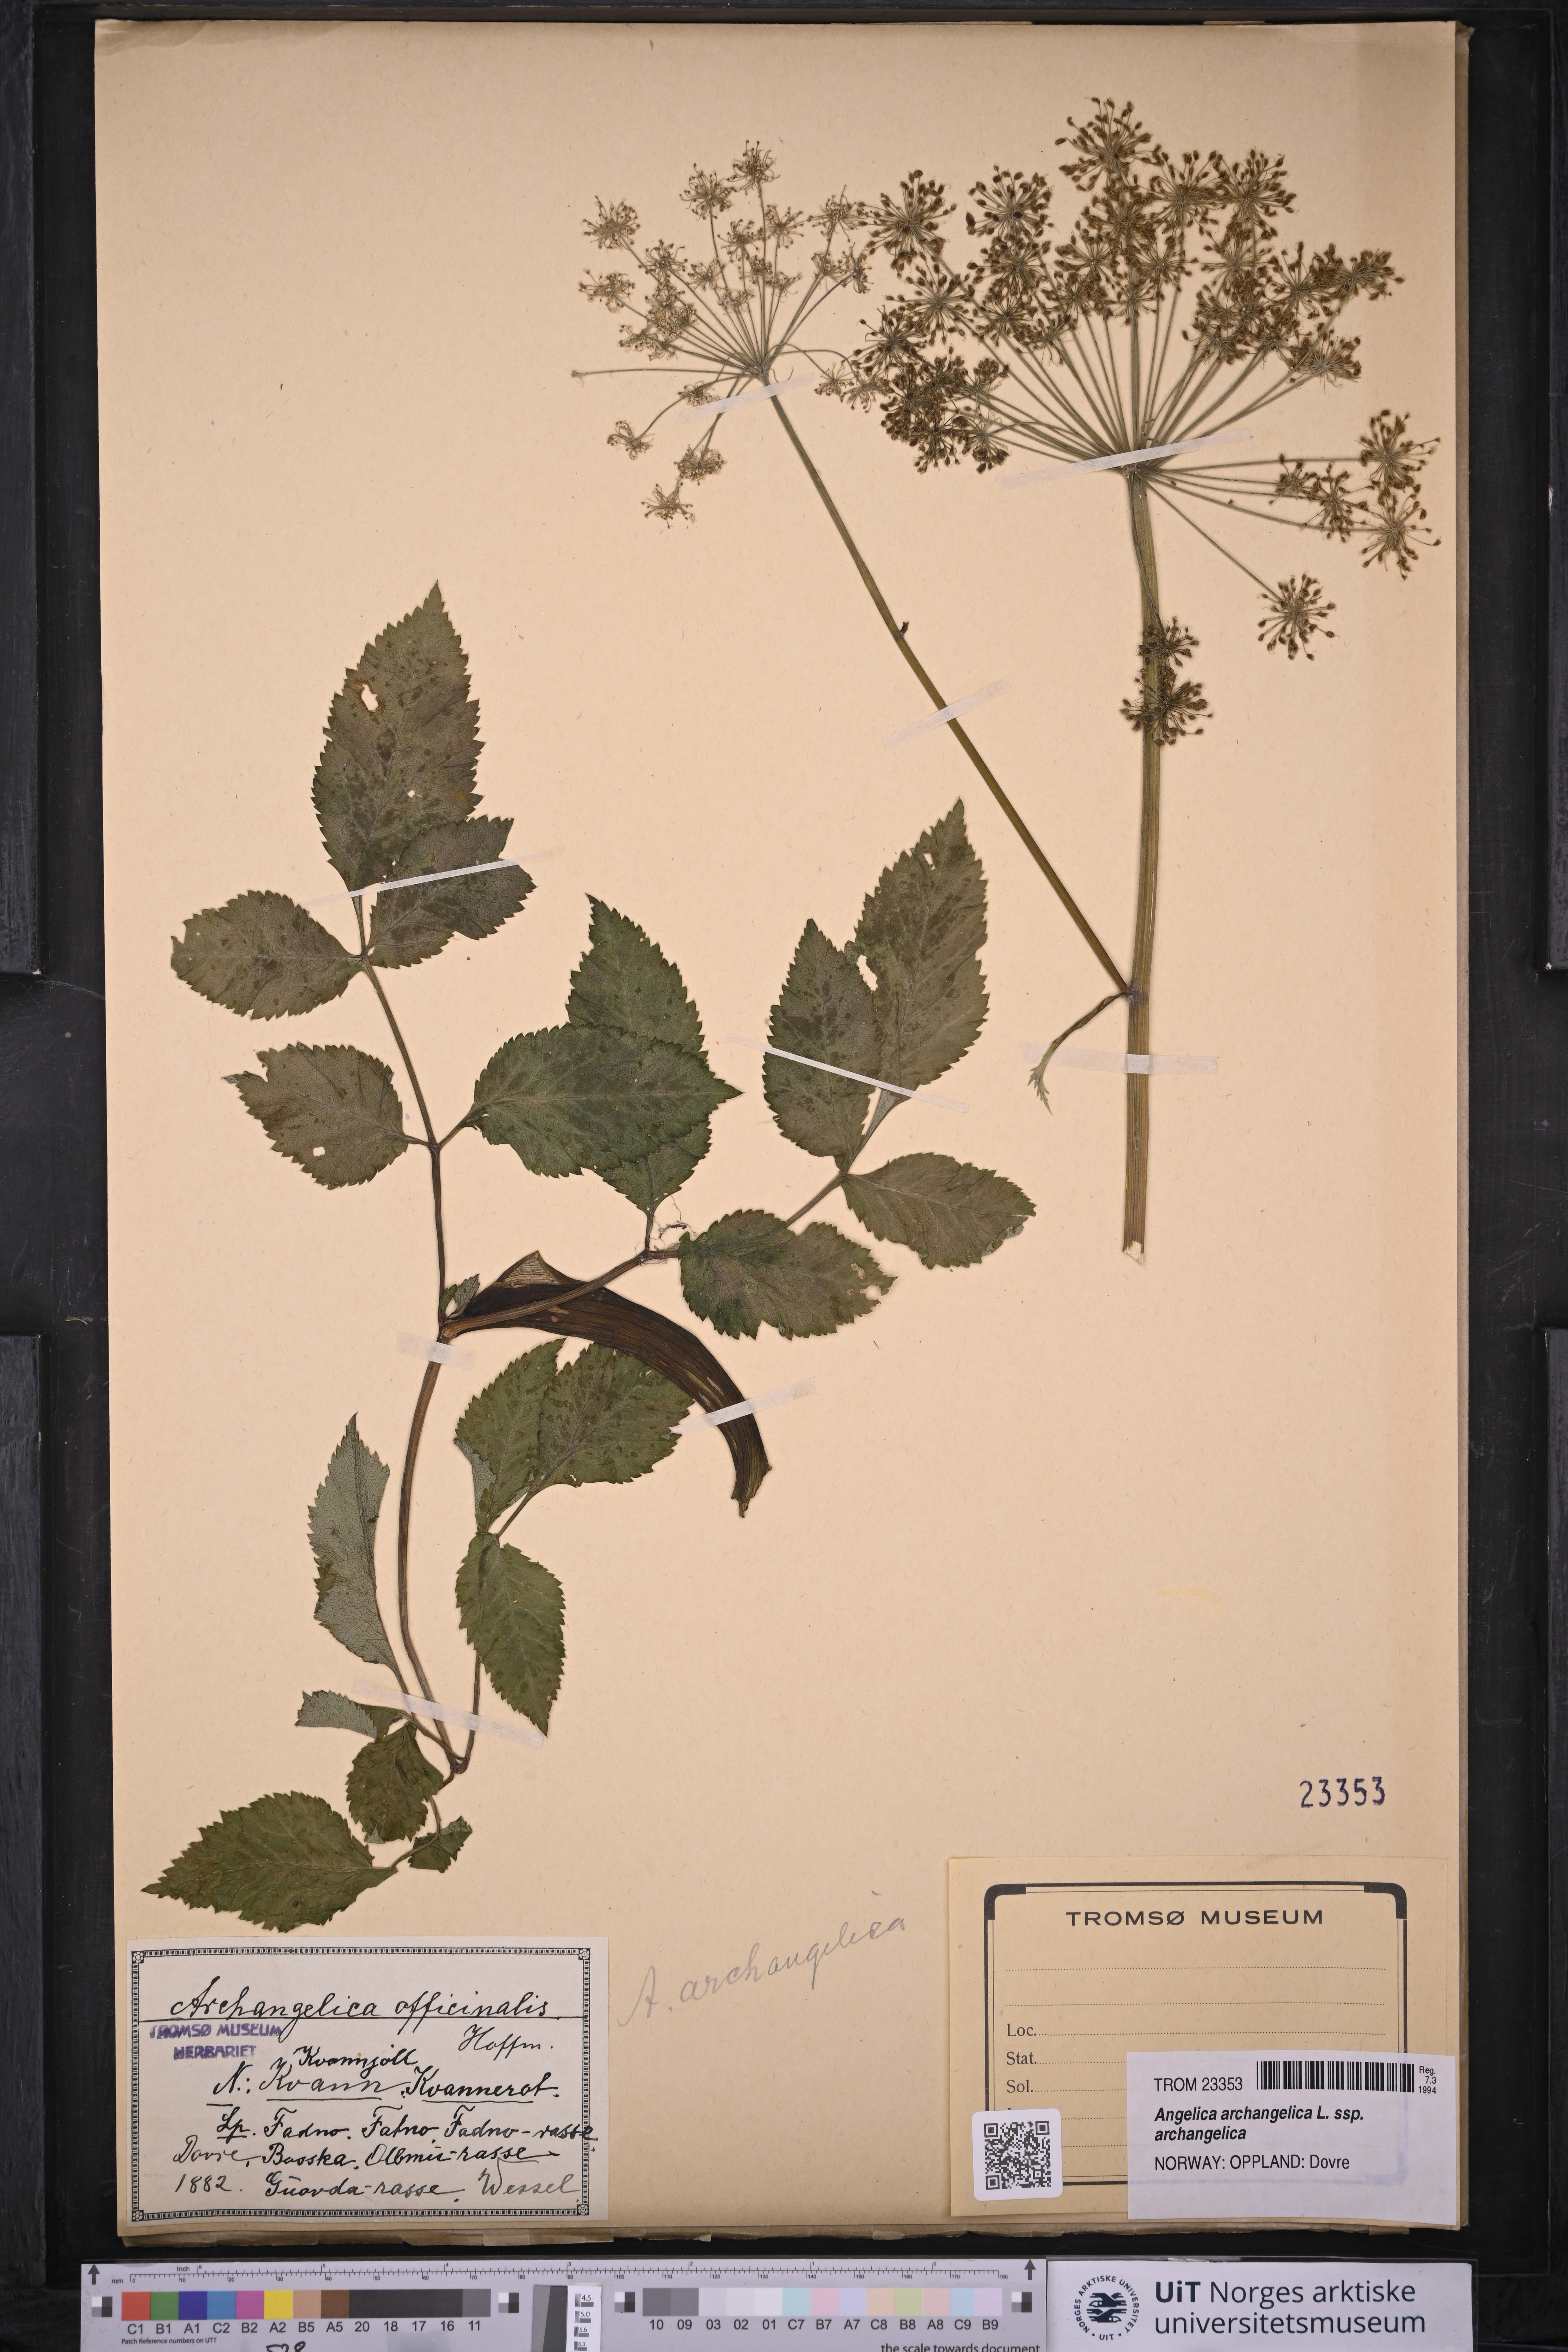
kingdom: Plantae
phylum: Tracheophyta
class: Magnoliopsida
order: Apiales
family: Apiaceae
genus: Angelica
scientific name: Angelica archangelica
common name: Garden angelica
